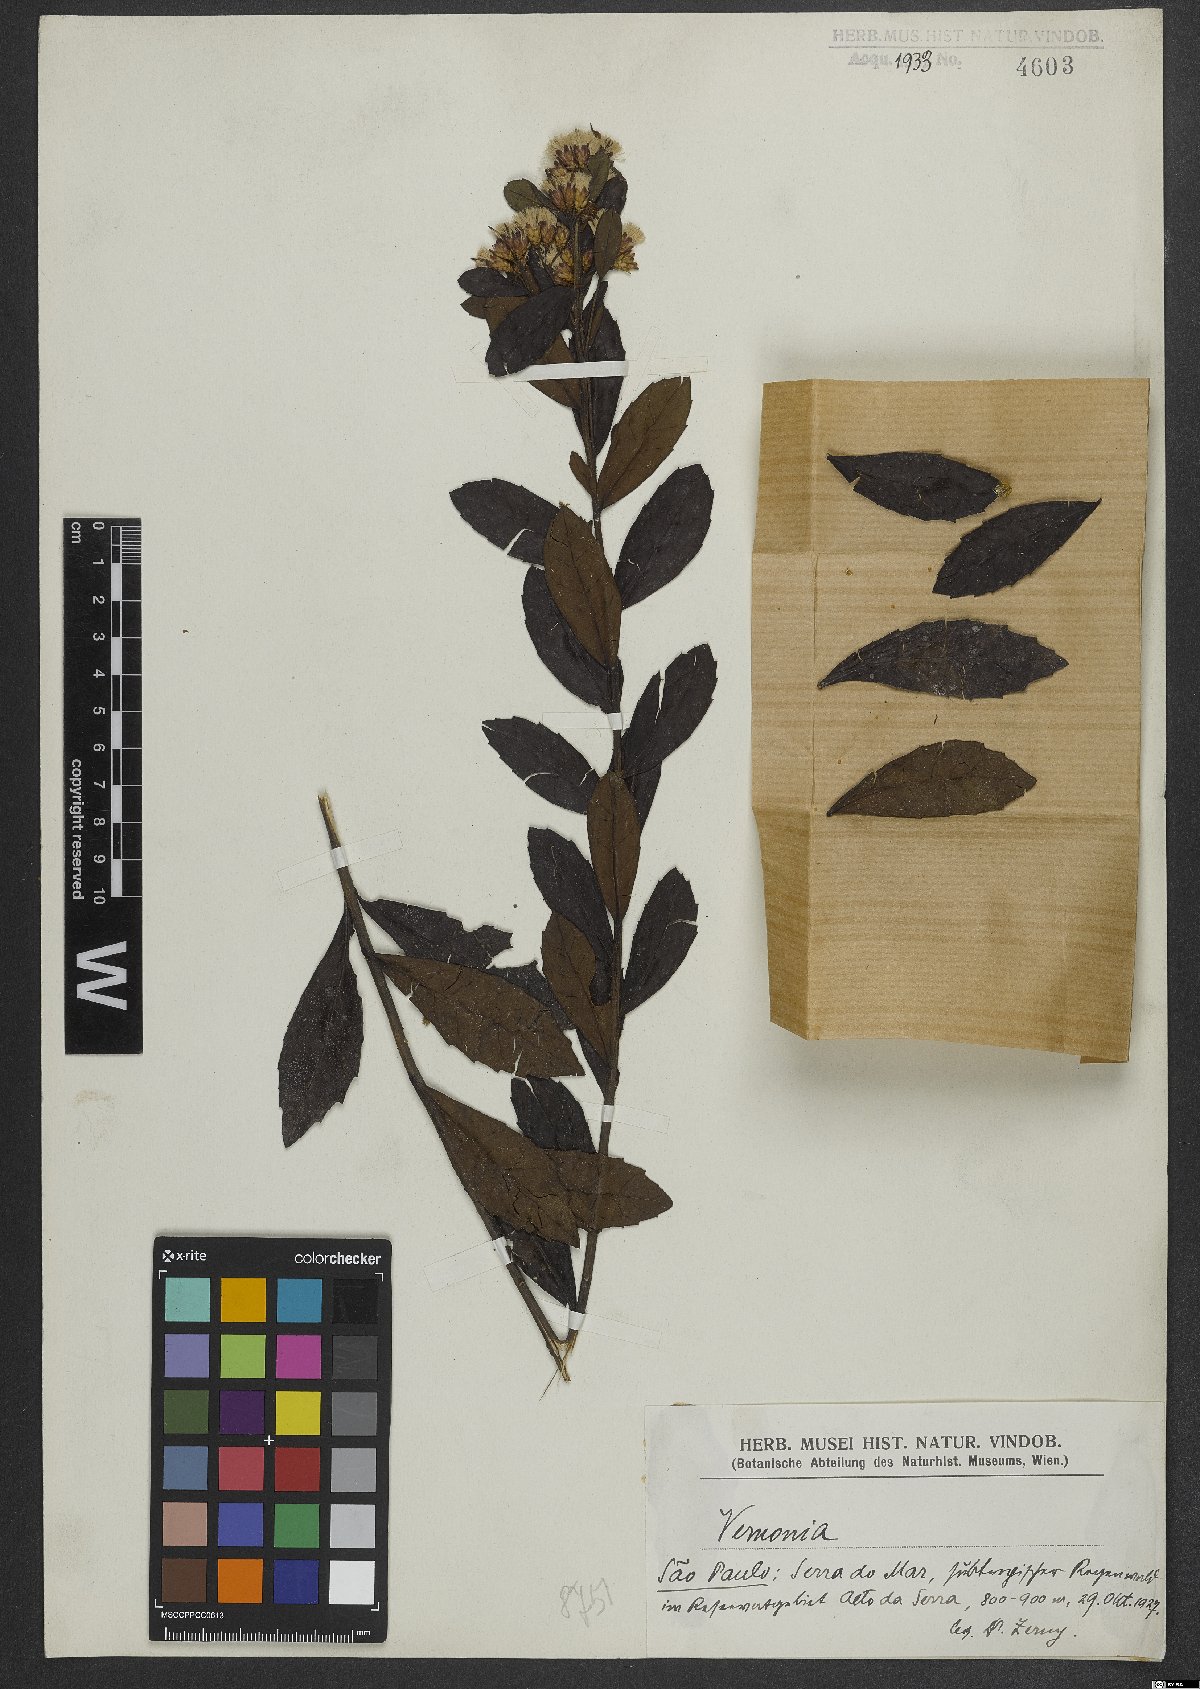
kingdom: Plantae
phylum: Tracheophyta
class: Magnoliopsida
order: Asterales
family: Asteraceae
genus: Vernonia
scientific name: Vernonia
